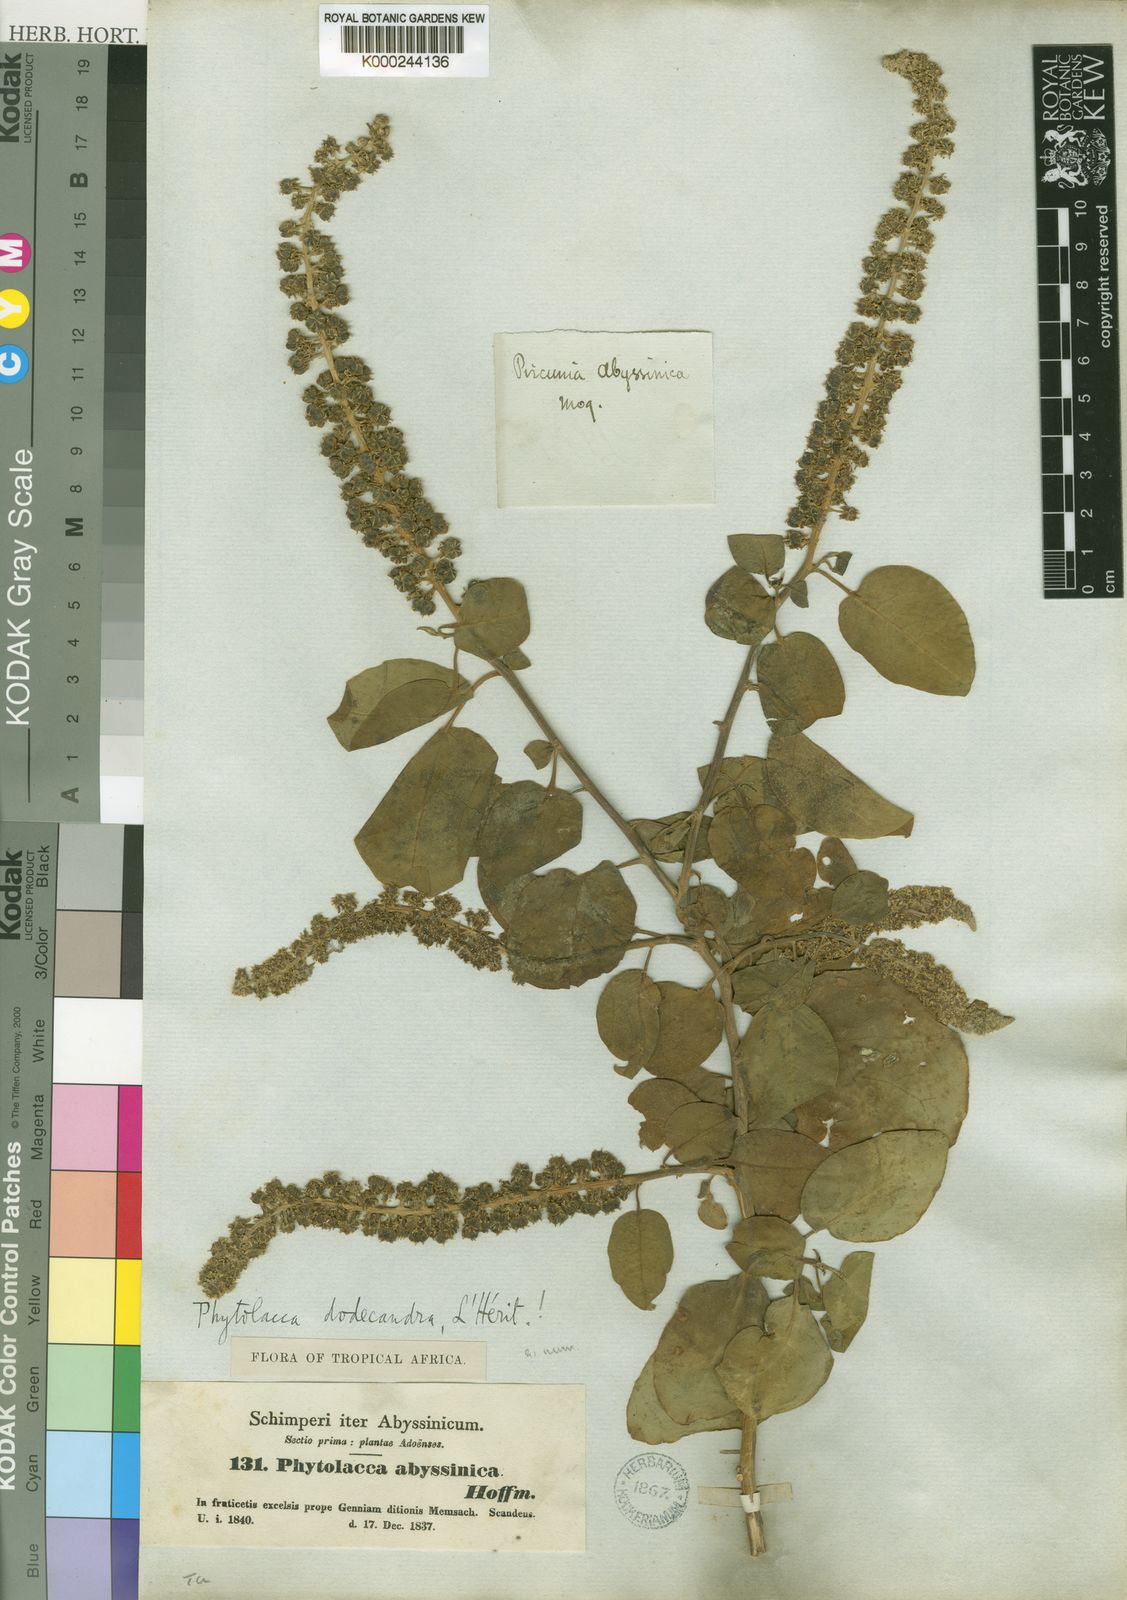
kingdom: Plantae
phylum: Tracheophyta
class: Magnoliopsida
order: Caryophyllales
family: Phytolaccaceae
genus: Phytolacca
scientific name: Phytolacca
